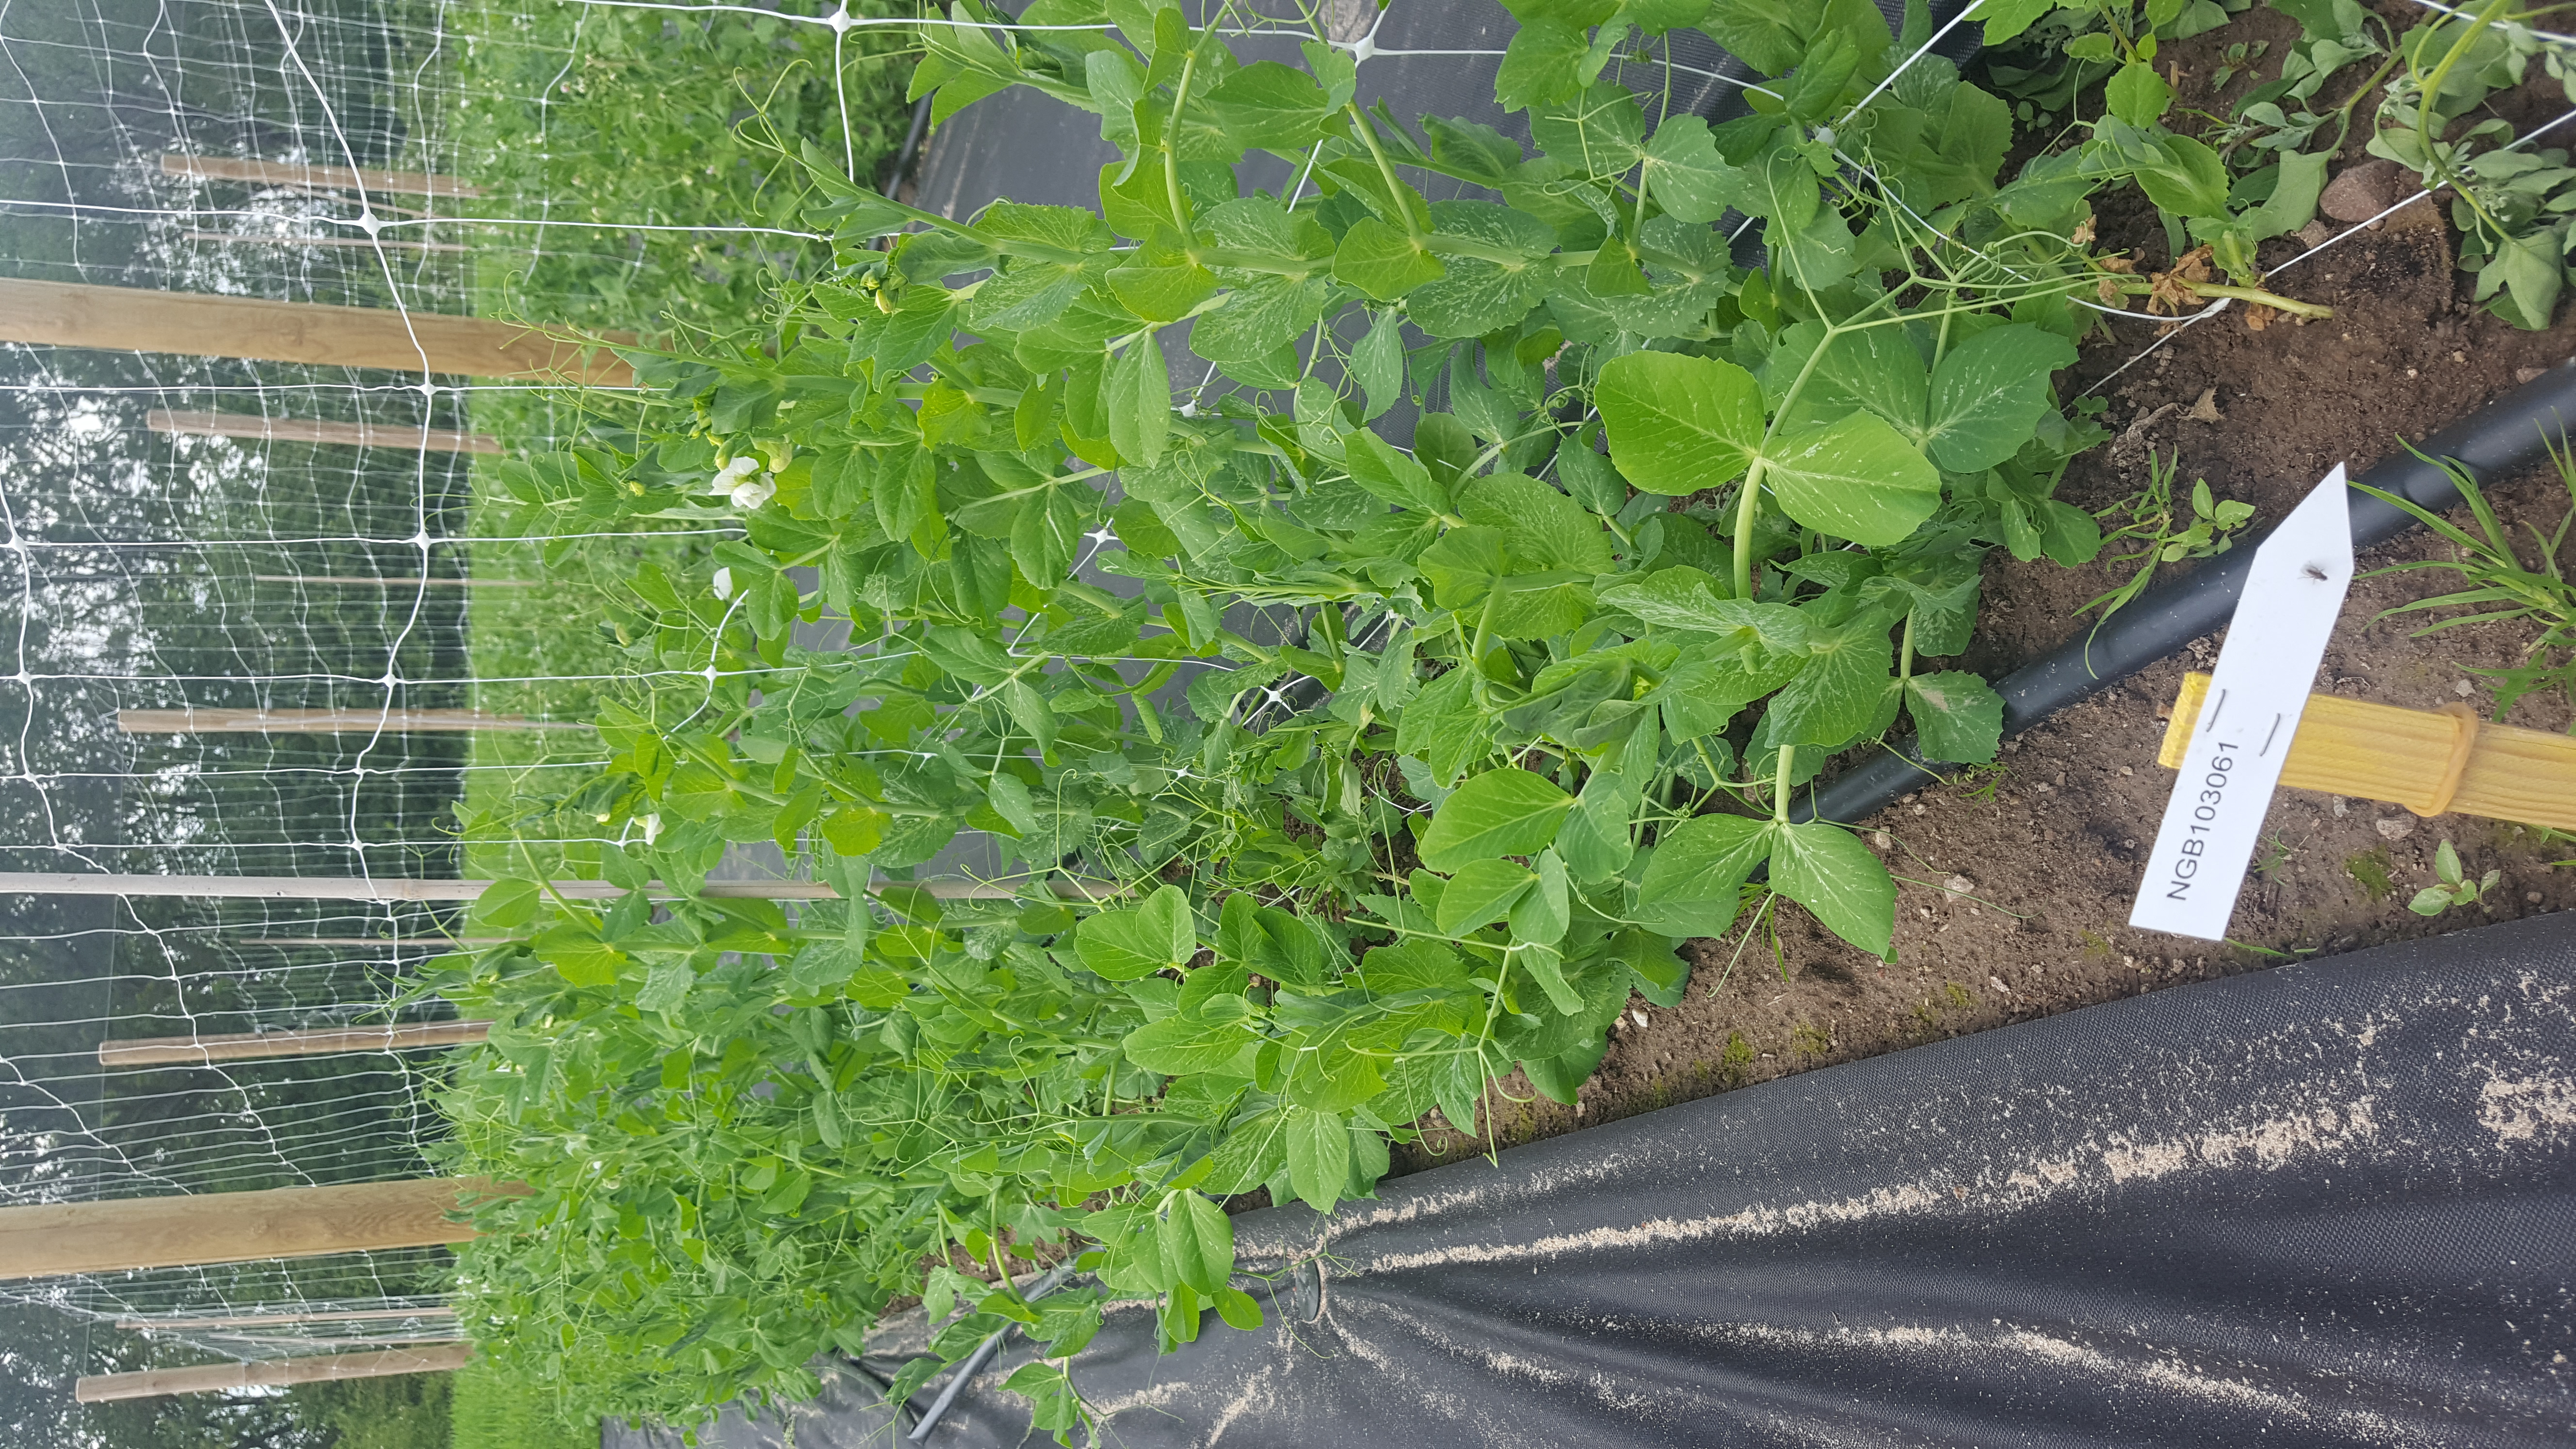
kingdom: Plantae
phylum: Tracheophyta
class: Magnoliopsida
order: Fabales
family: Fabaceae
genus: Lathyrus
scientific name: Lathyrus oleraceus
